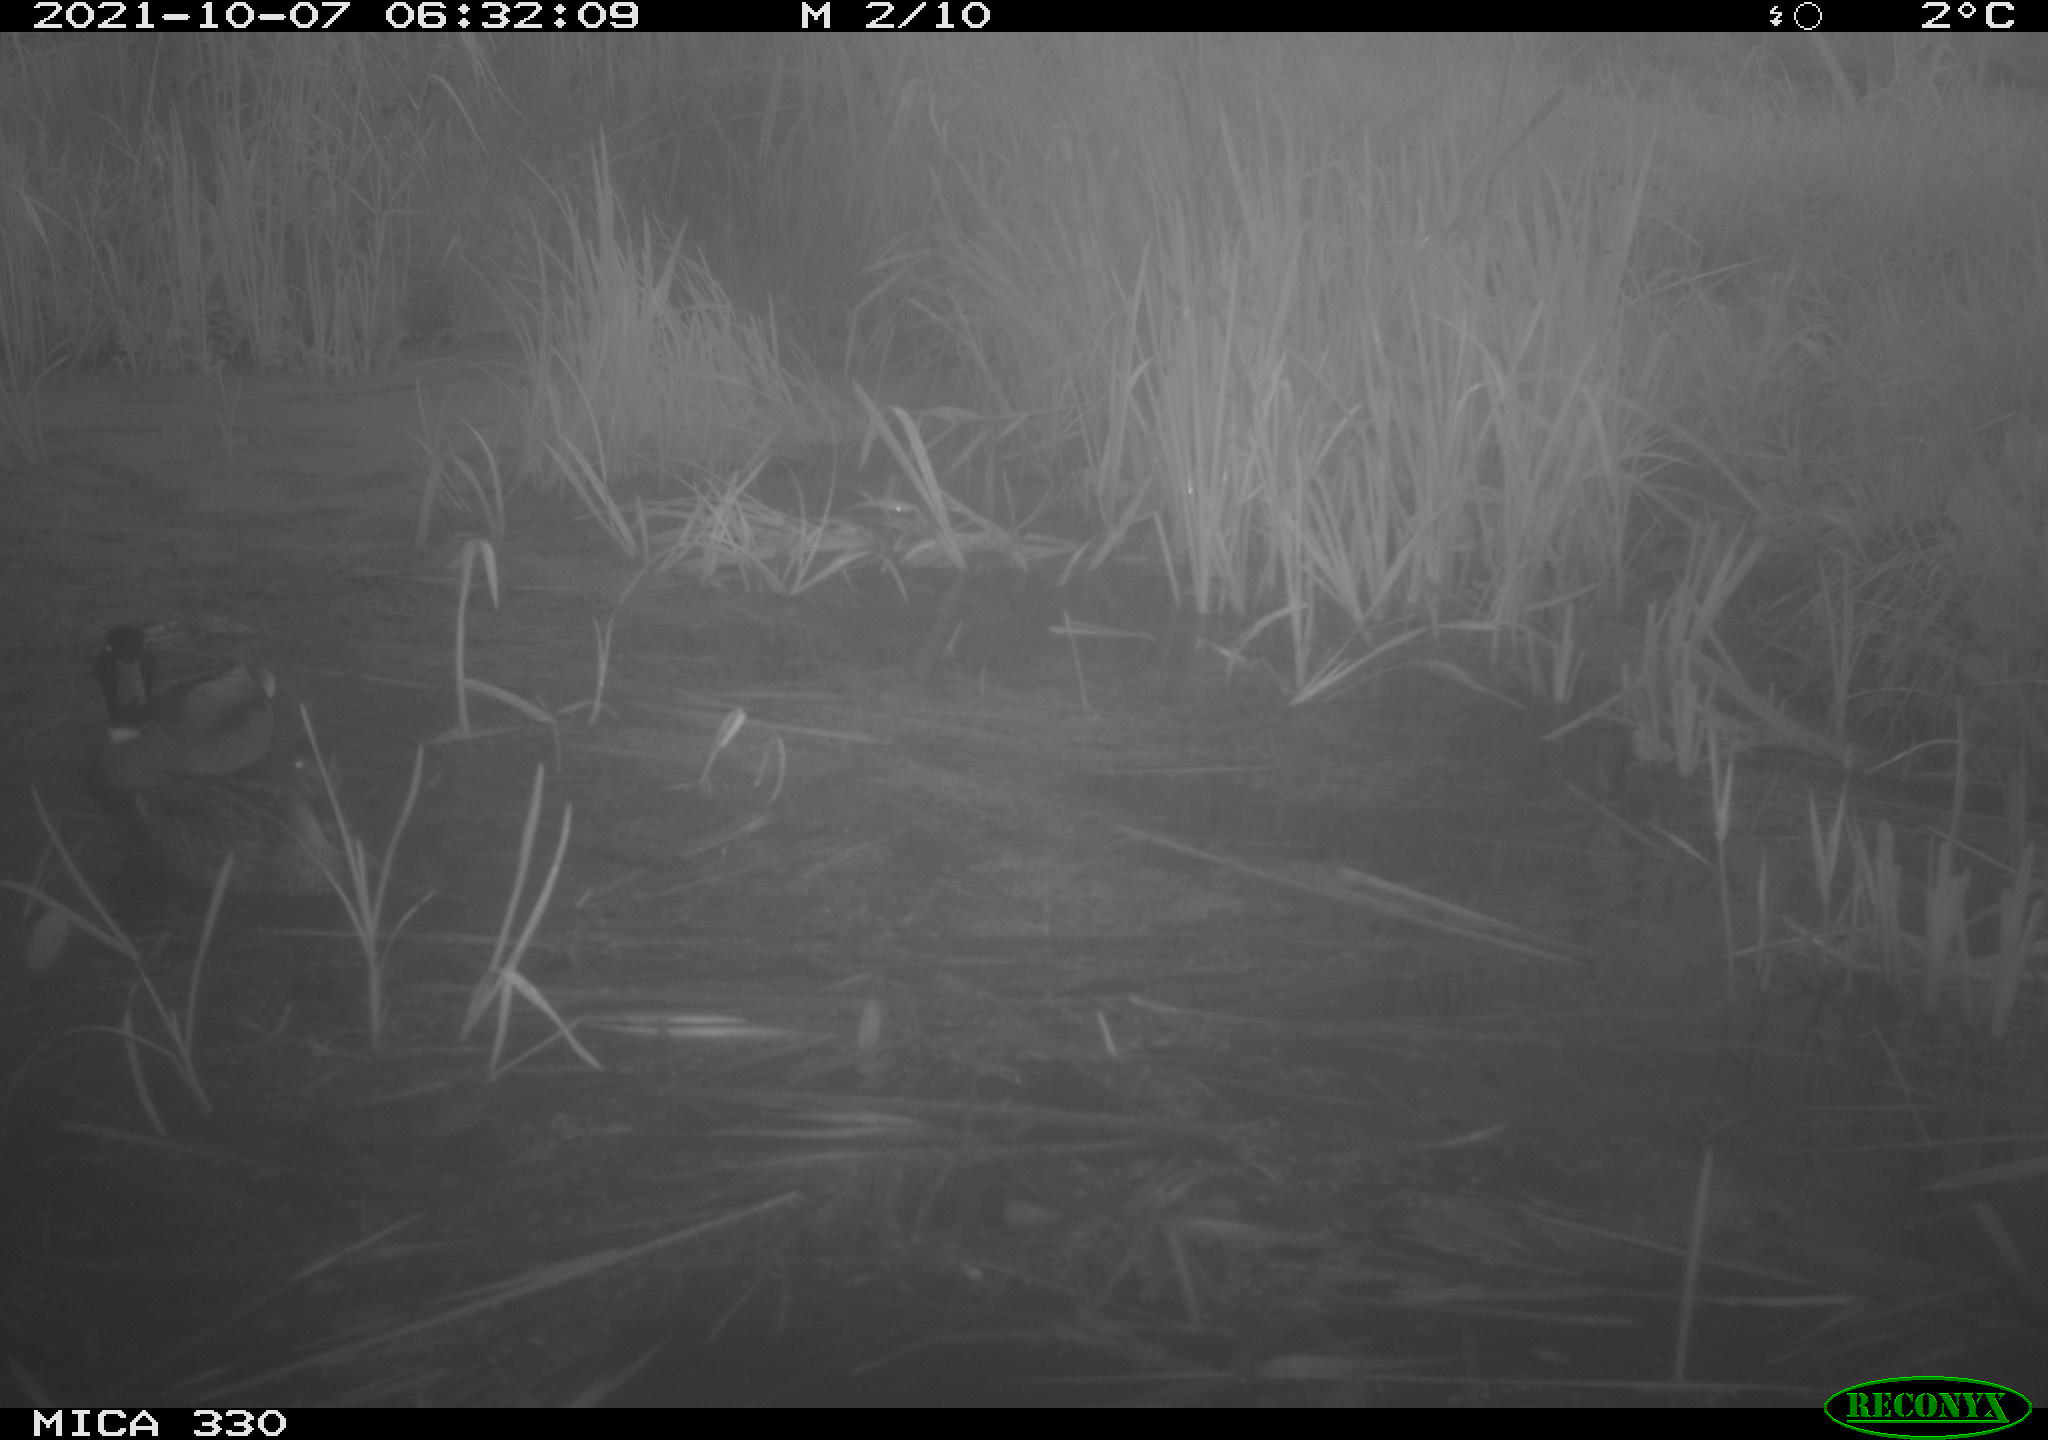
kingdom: Animalia
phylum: Chordata
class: Aves
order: Anseriformes
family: Anatidae
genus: Anas
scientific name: Anas platyrhynchos
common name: Mallard
